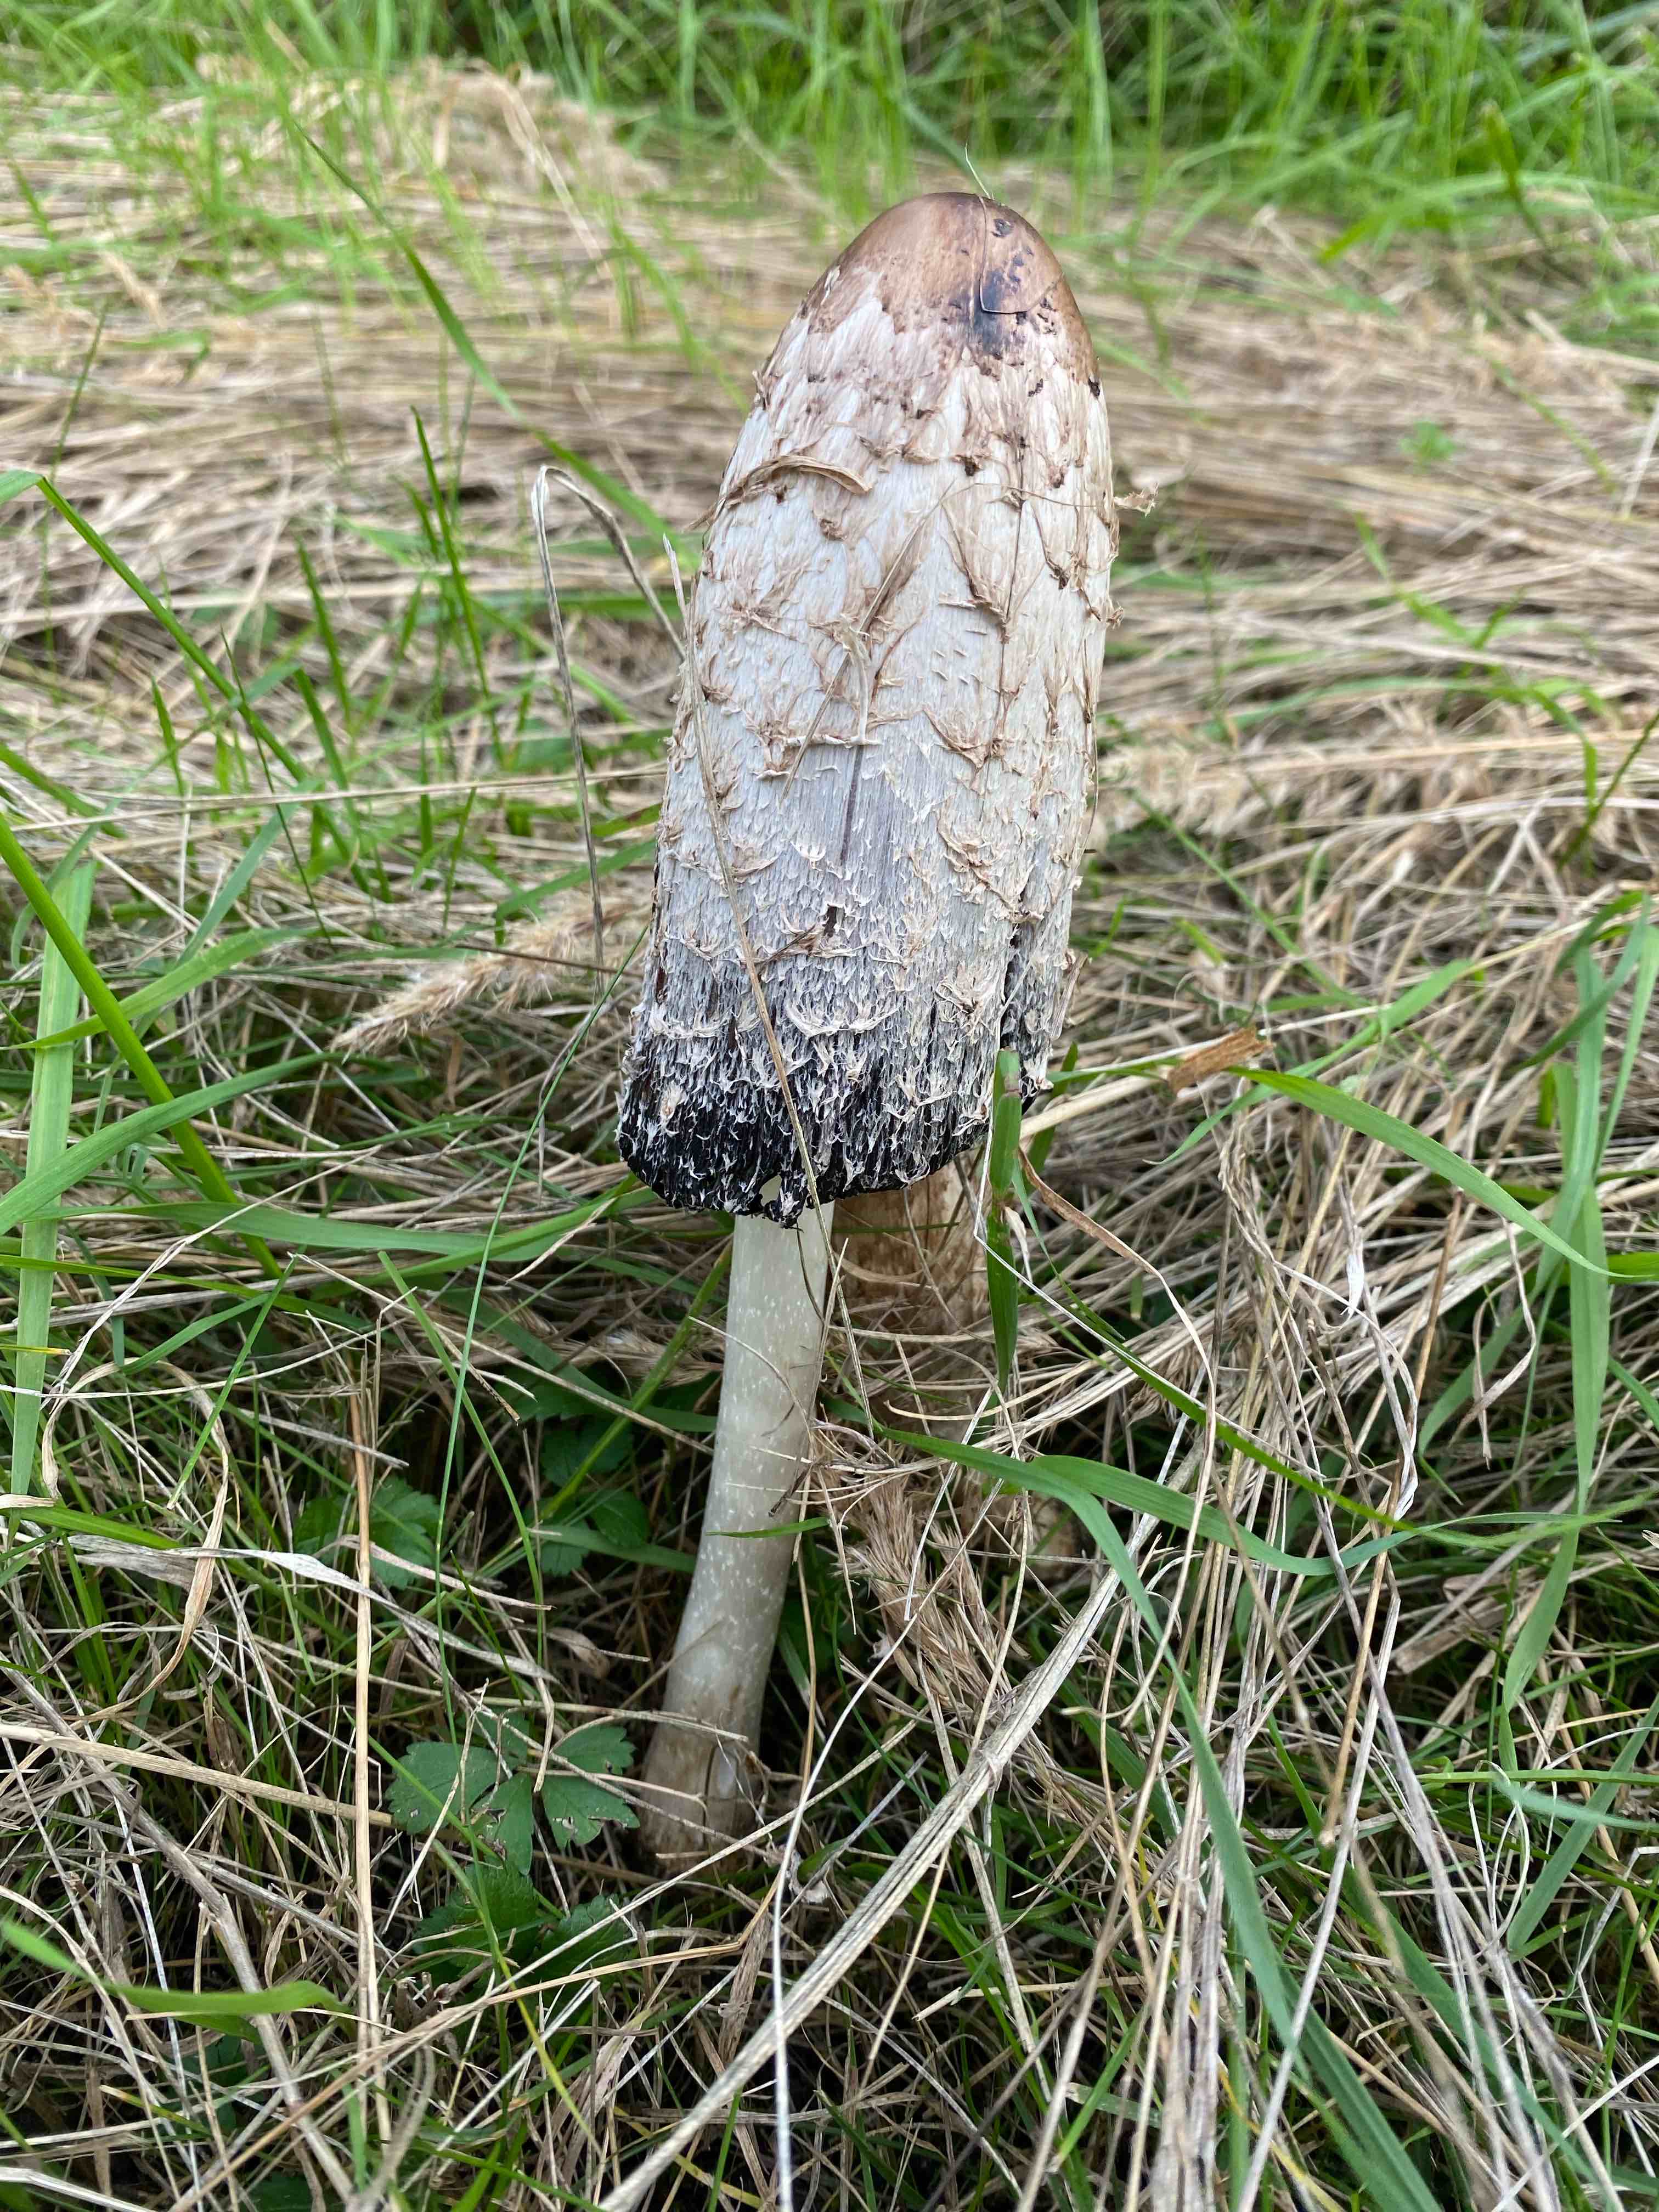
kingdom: Fungi
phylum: Basidiomycota
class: Agaricomycetes
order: Agaricales
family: Agaricaceae
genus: Coprinus
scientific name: Coprinus comatus
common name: stor parykhat
